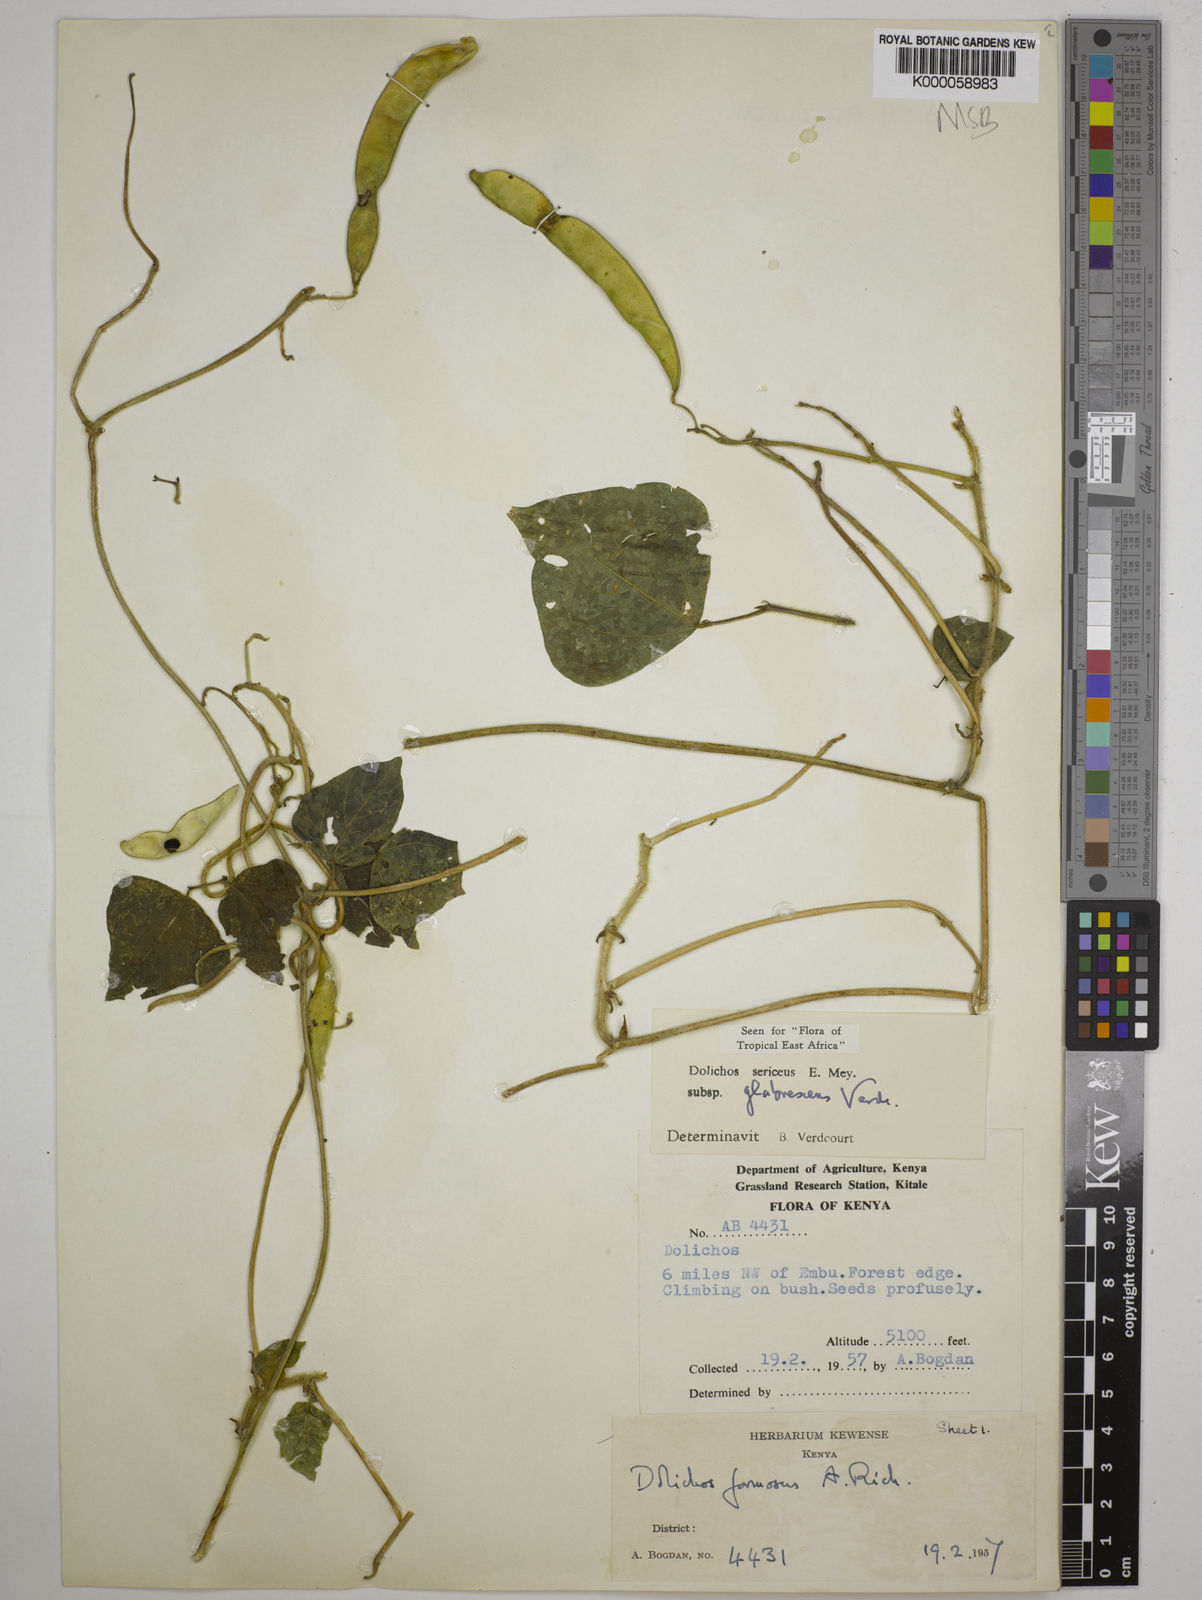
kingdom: Plantae
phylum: Tracheophyta
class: Magnoliopsida
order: Fabales
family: Fabaceae
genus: Dolichos
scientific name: Dolichos sericeus
